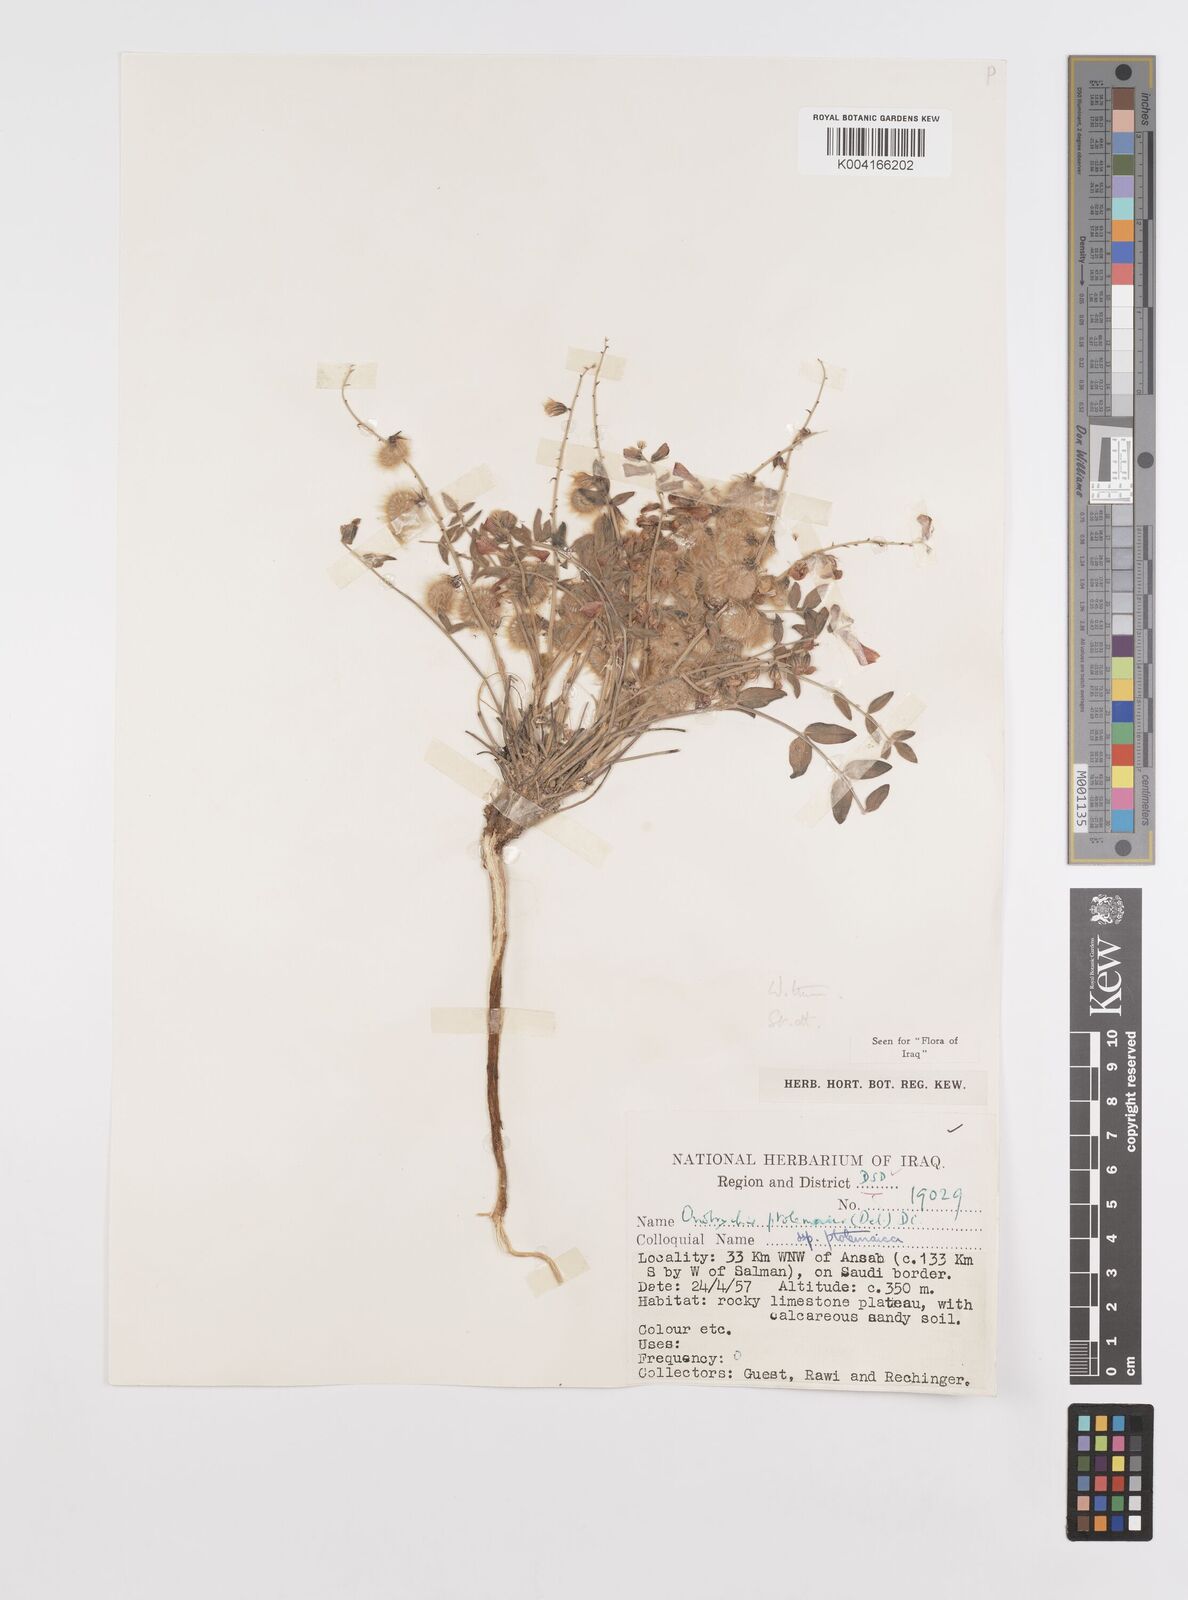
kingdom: Plantae
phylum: Tracheophyta
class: Magnoliopsida
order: Fabales
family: Fabaceae
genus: Onobrychis
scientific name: Onobrychis ptolemaica
